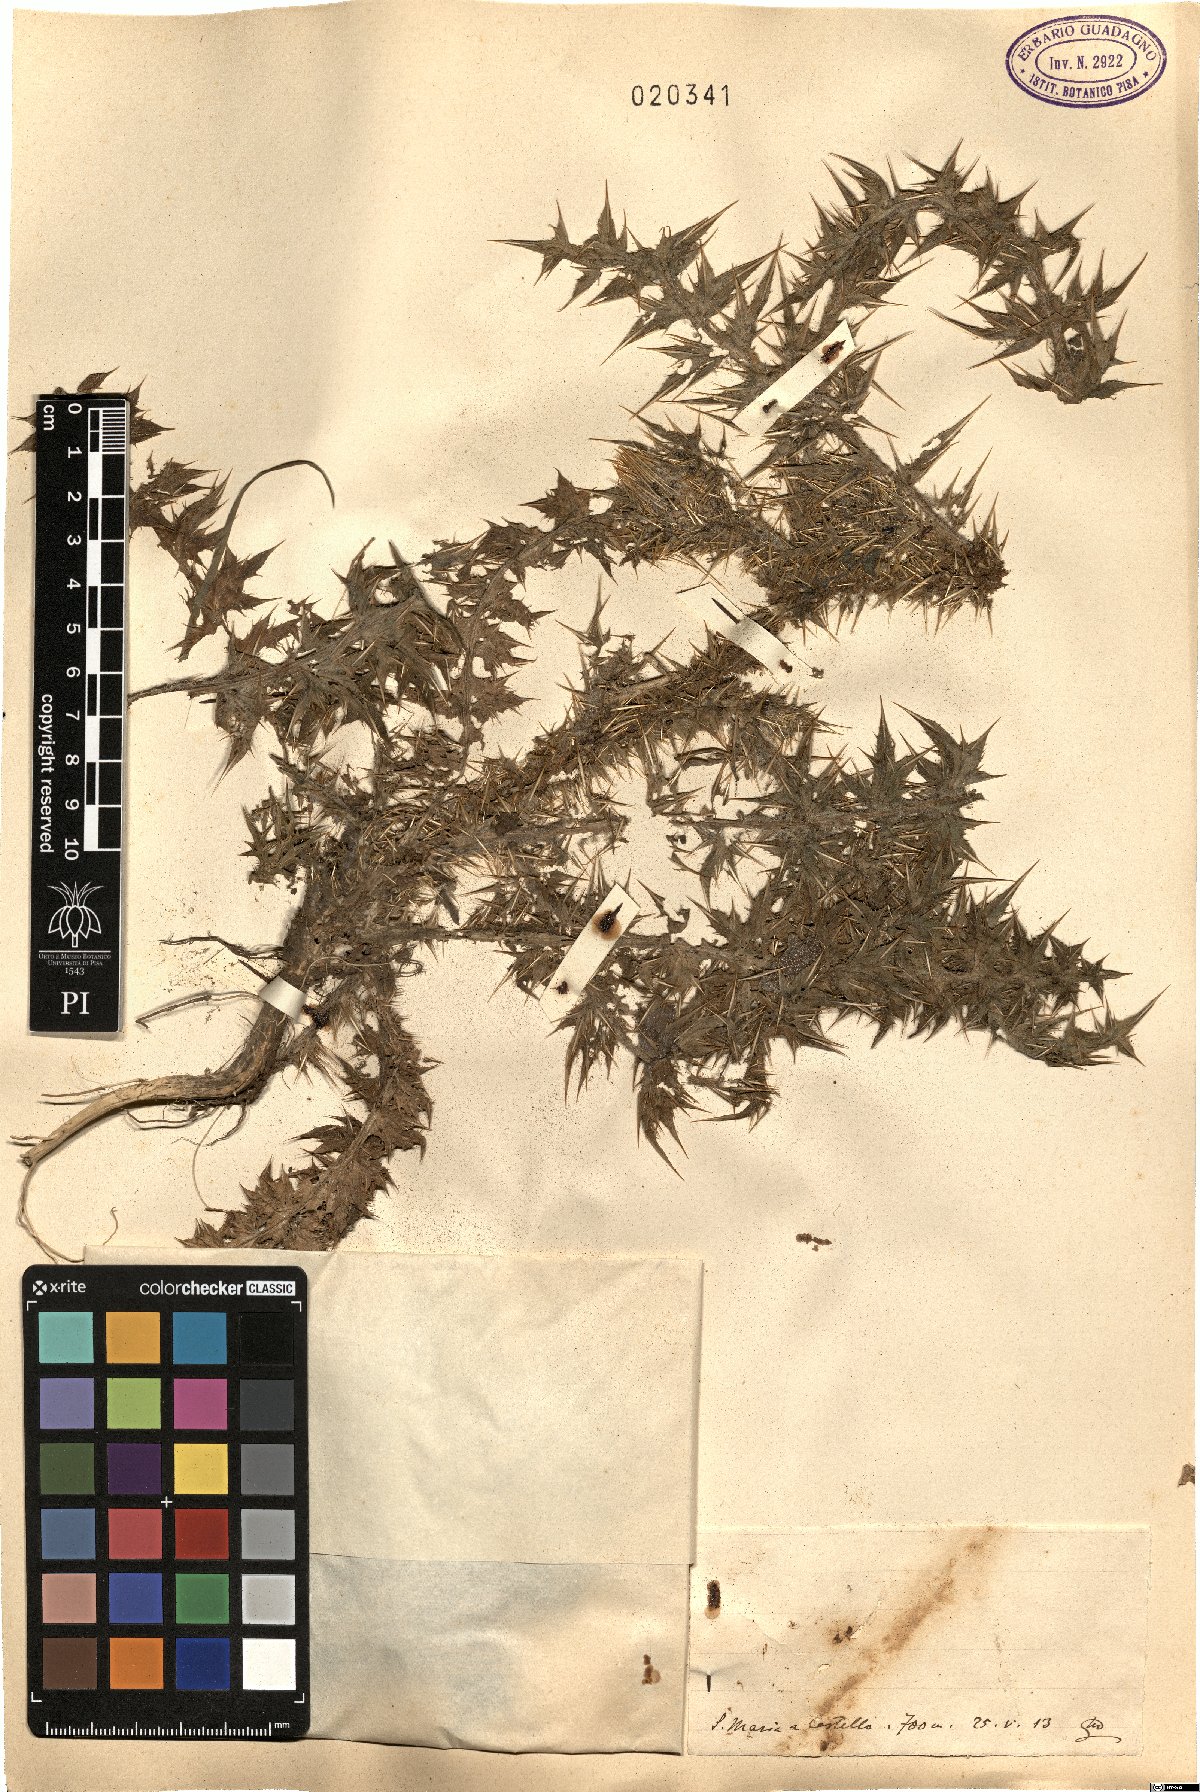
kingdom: Plantae
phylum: Tracheophyta
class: Magnoliopsida
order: Asterales
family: Asteraceae
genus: Carduus
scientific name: Carduus
